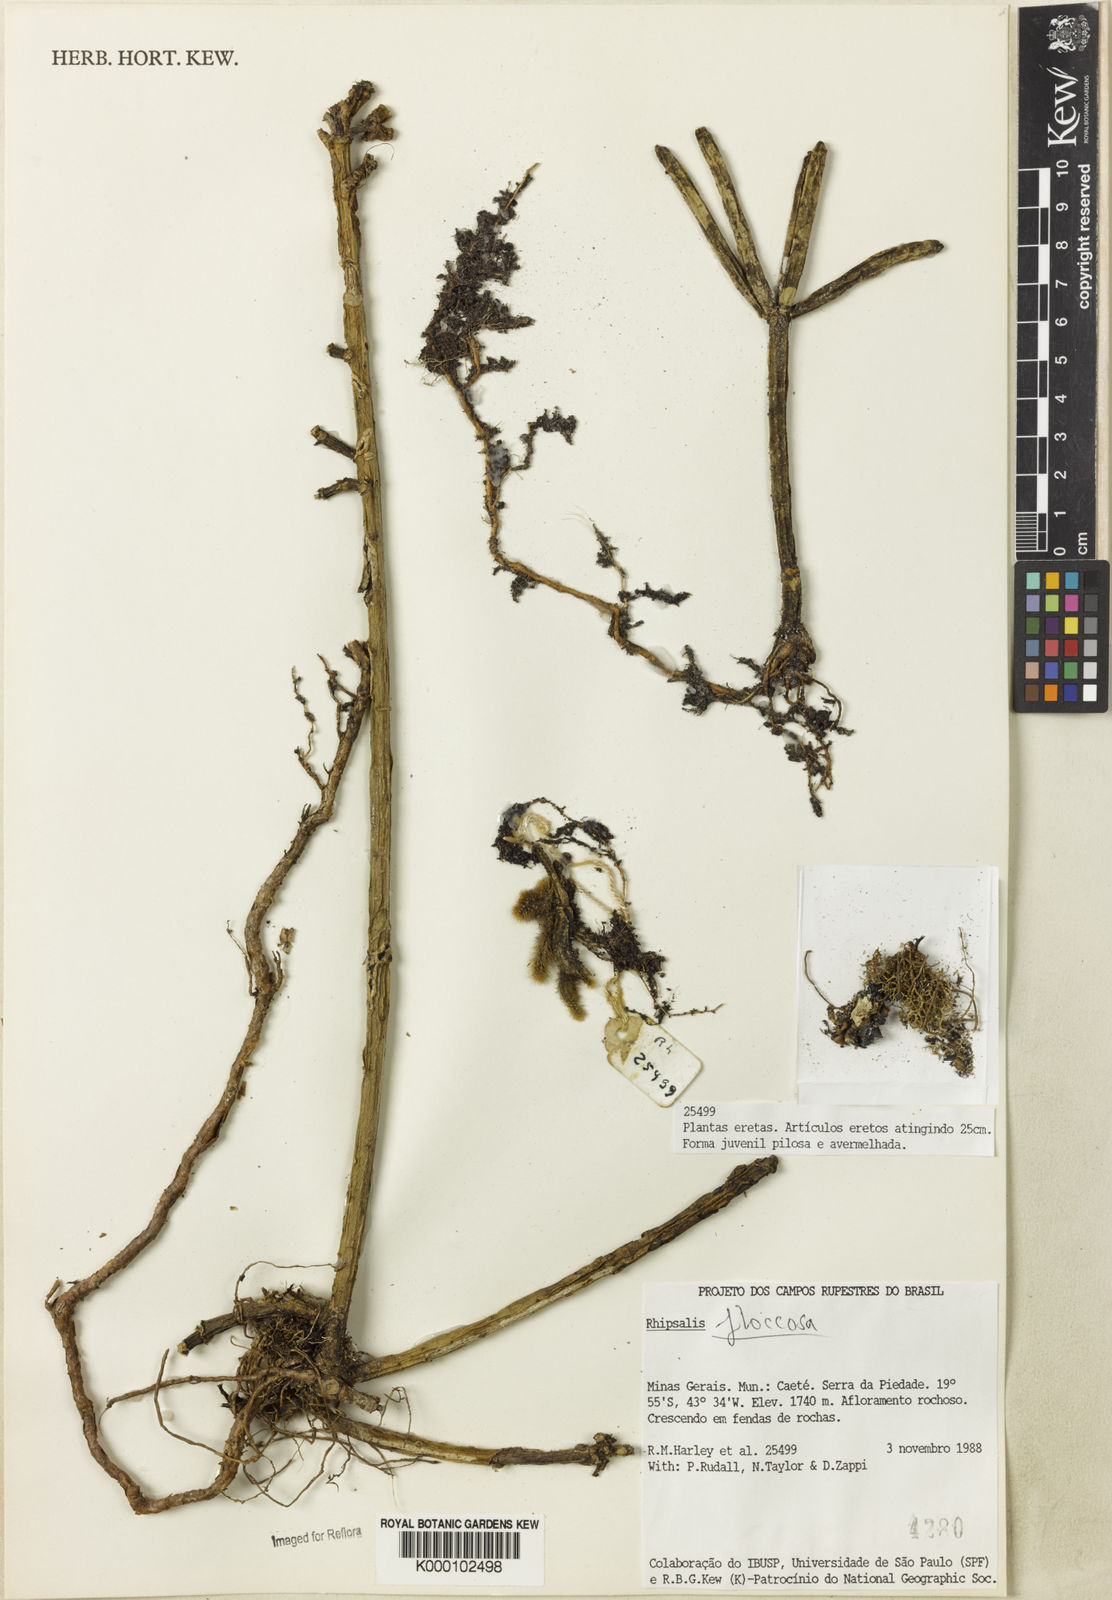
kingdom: Plantae
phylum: Tracheophyta
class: Magnoliopsida
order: Caryophyllales
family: Cactaceae
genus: Rhipsalis
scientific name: Rhipsalis floccosa
